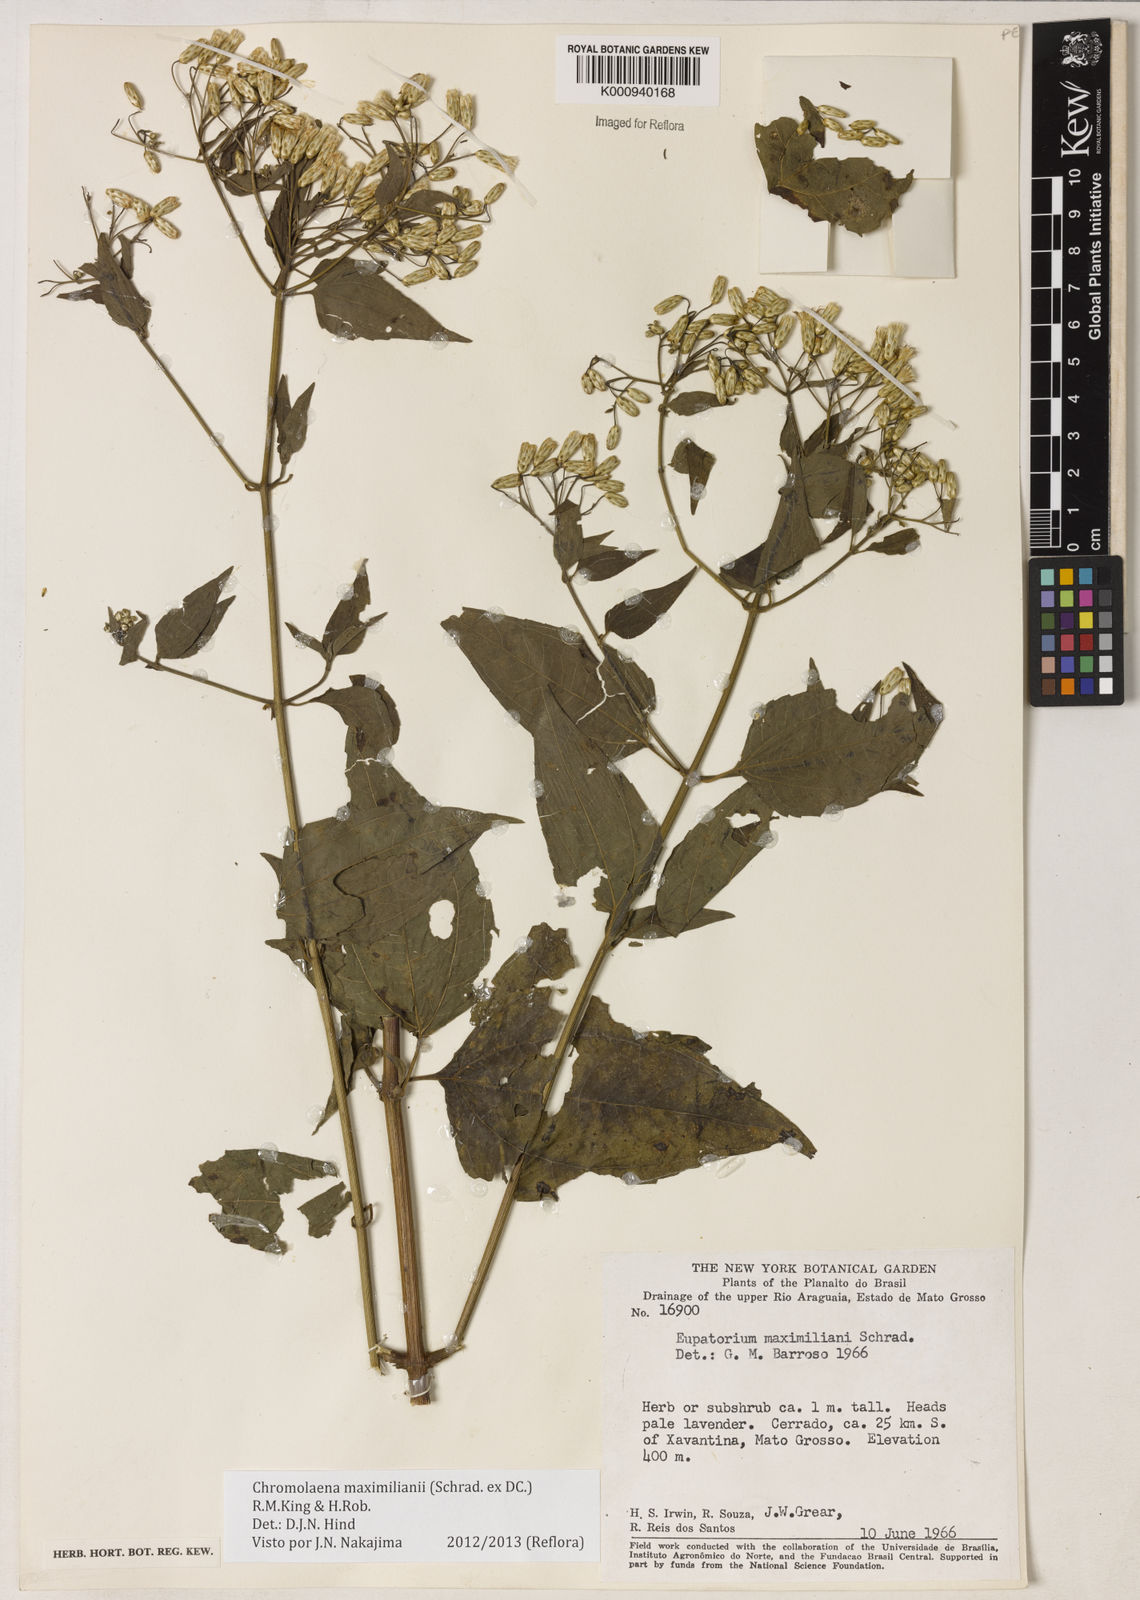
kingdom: Plantae
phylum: Tracheophyta
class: Magnoliopsida
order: Asterales
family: Asteraceae
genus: Chromolaena
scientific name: Chromolaena maximiliani
